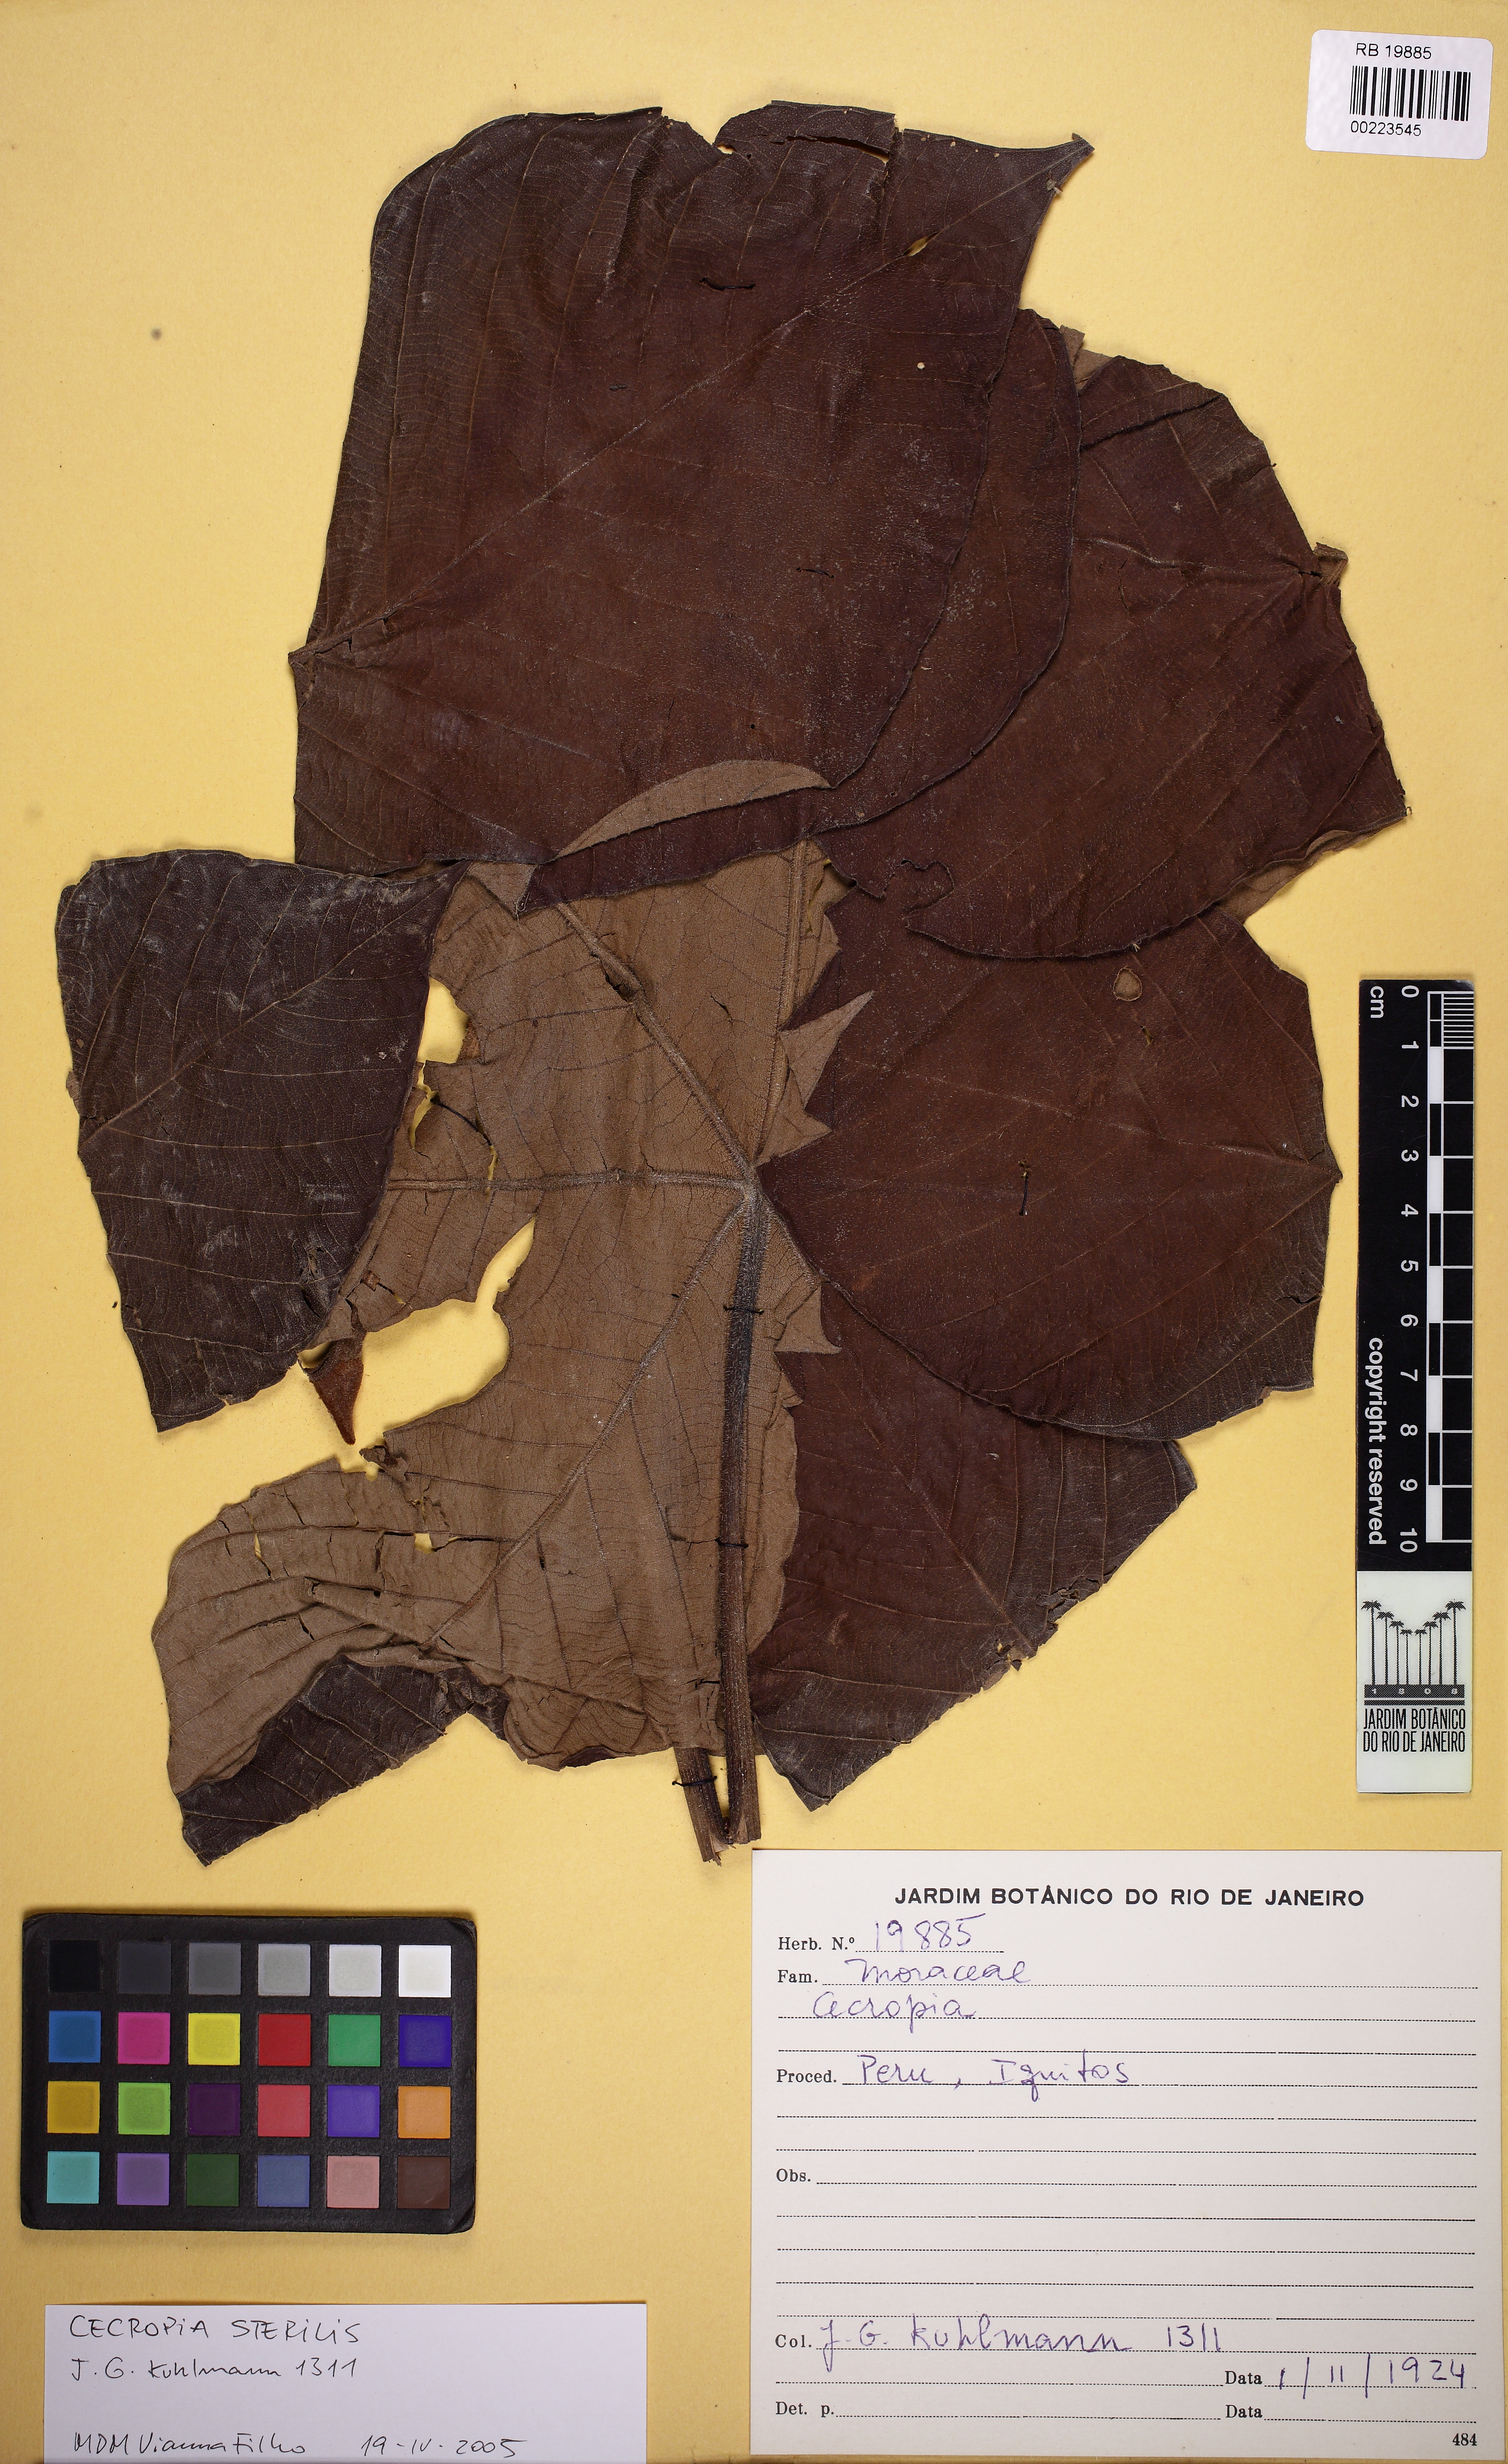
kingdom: Plantae
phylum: Tracheophyta
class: Magnoliopsida
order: Rosales
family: Urticaceae
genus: Cecropia
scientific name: Cecropia
